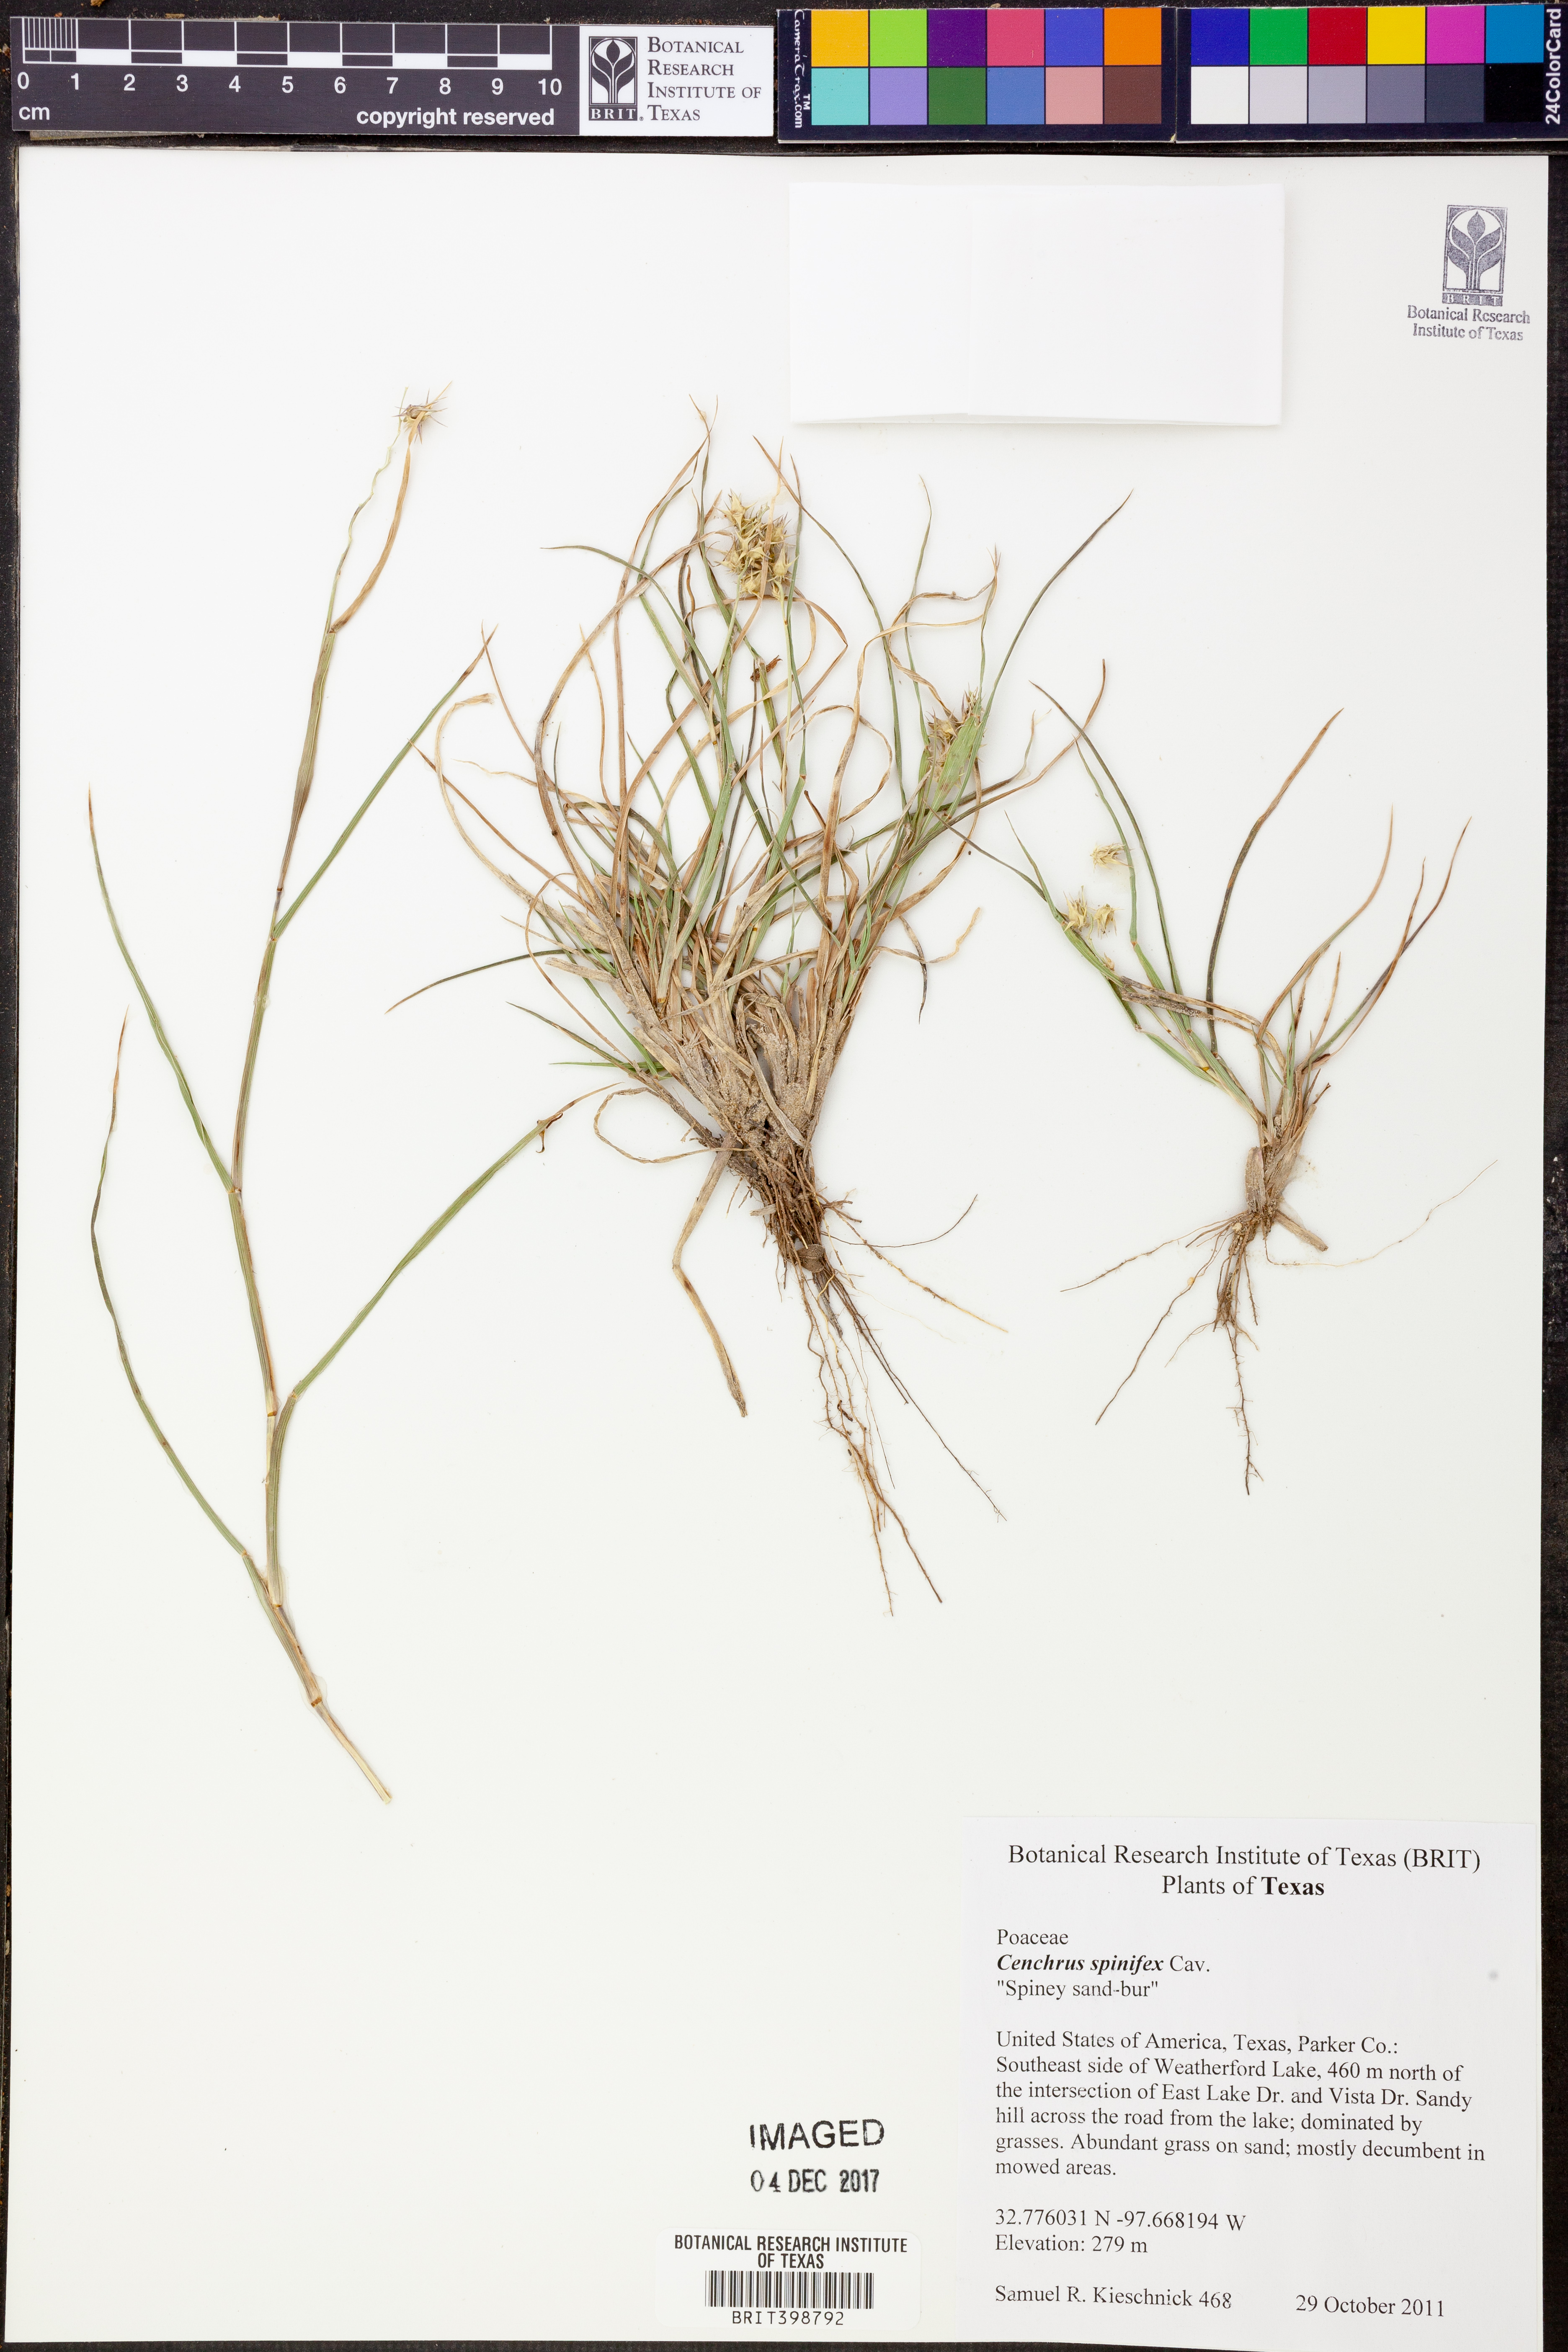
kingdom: Plantae
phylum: Tracheophyta
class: Liliopsida
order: Poales
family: Poaceae
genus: Cenchrus
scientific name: Cenchrus spinifex
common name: Coast sandbur
